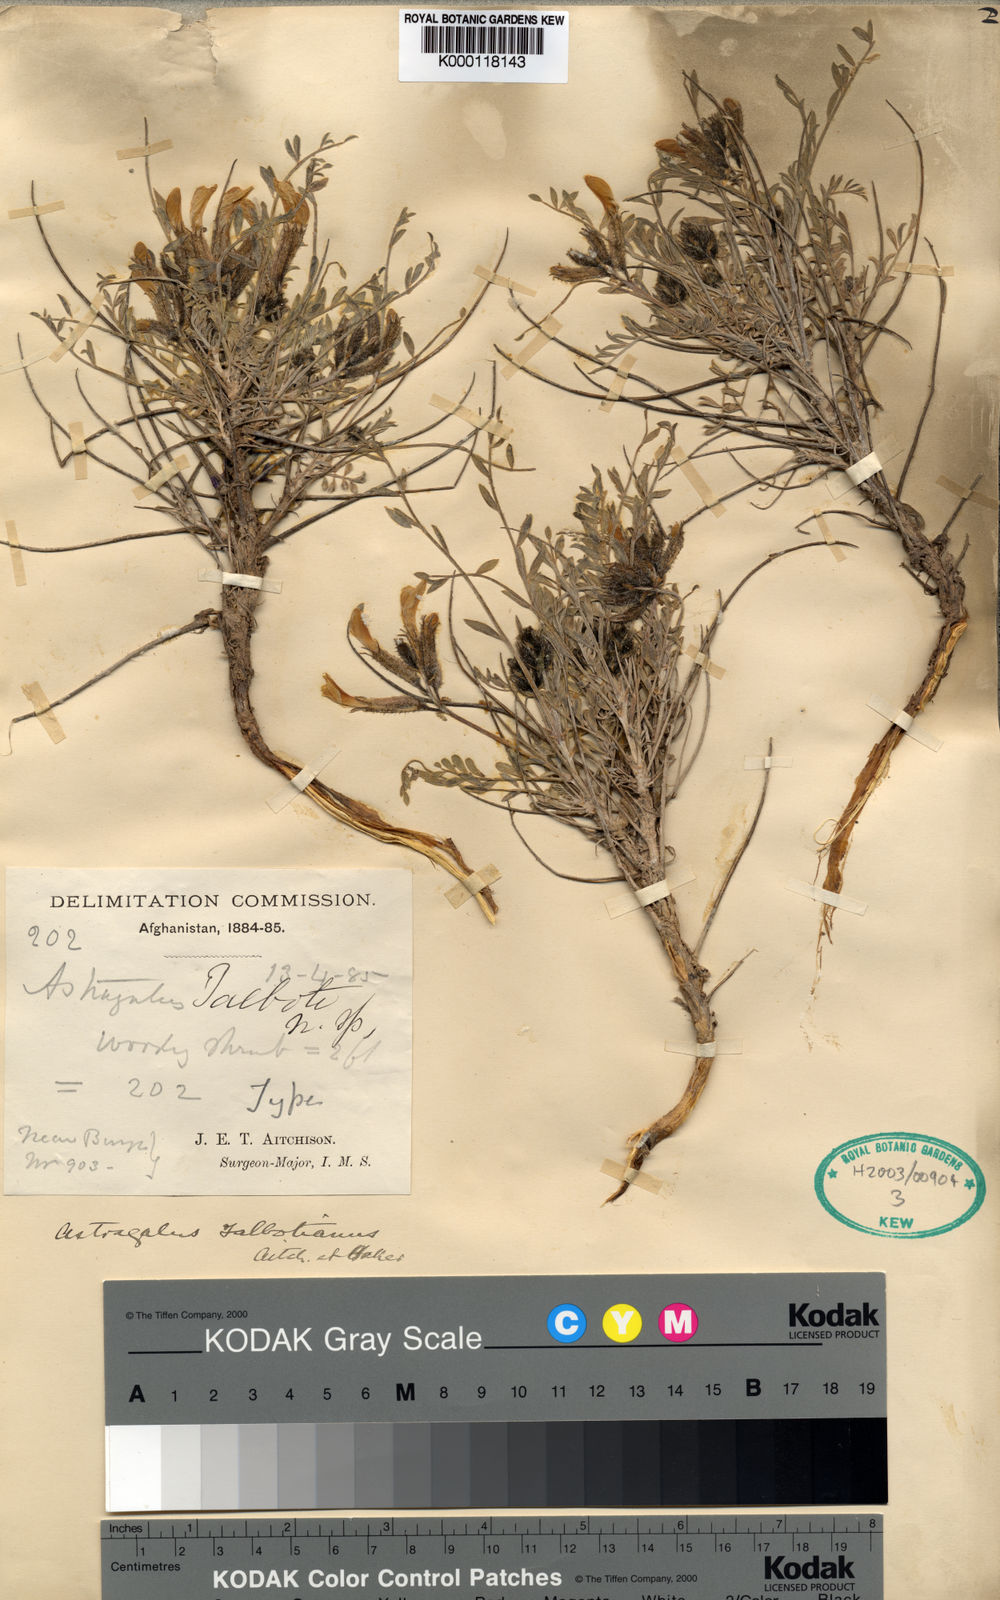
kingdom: Plantae
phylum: Tracheophyta
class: Magnoliopsida
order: Fabales
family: Fabaceae
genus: Astragalus
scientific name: Astragalus
